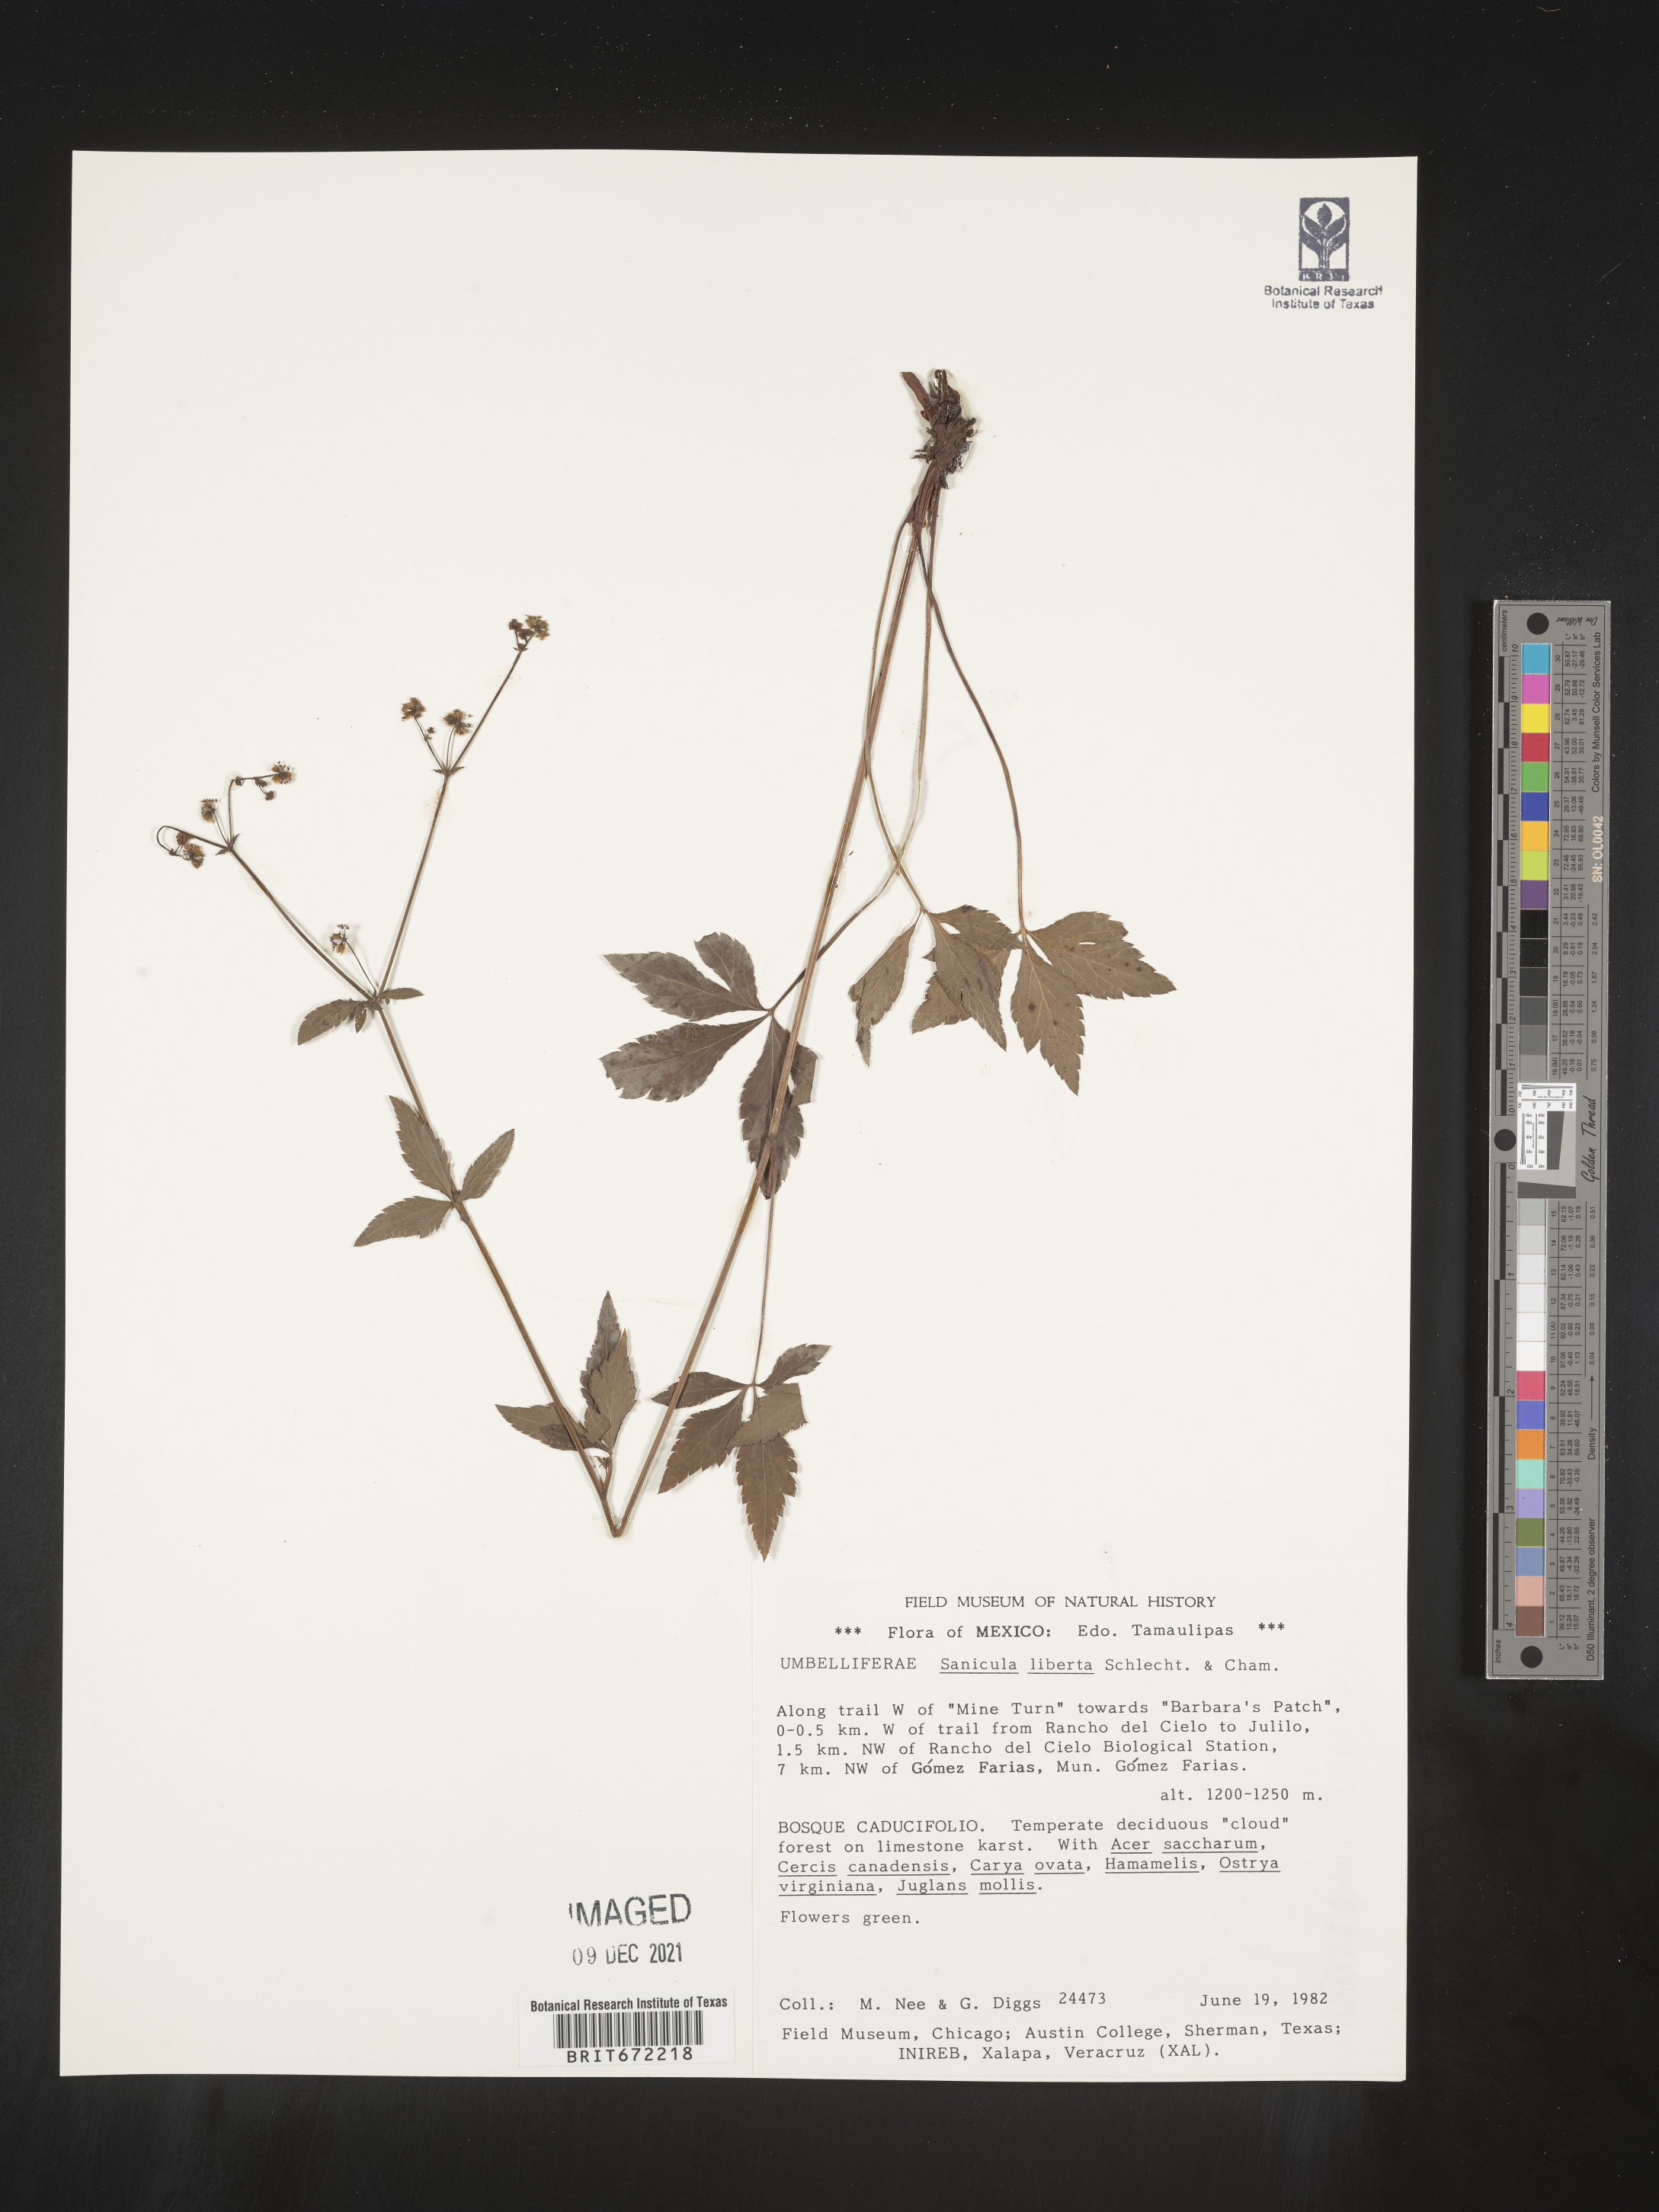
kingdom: Plantae
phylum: Tracheophyta
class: Magnoliopsida
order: Apiales
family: Apiaceae
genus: Sanicula
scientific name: Sanicula
